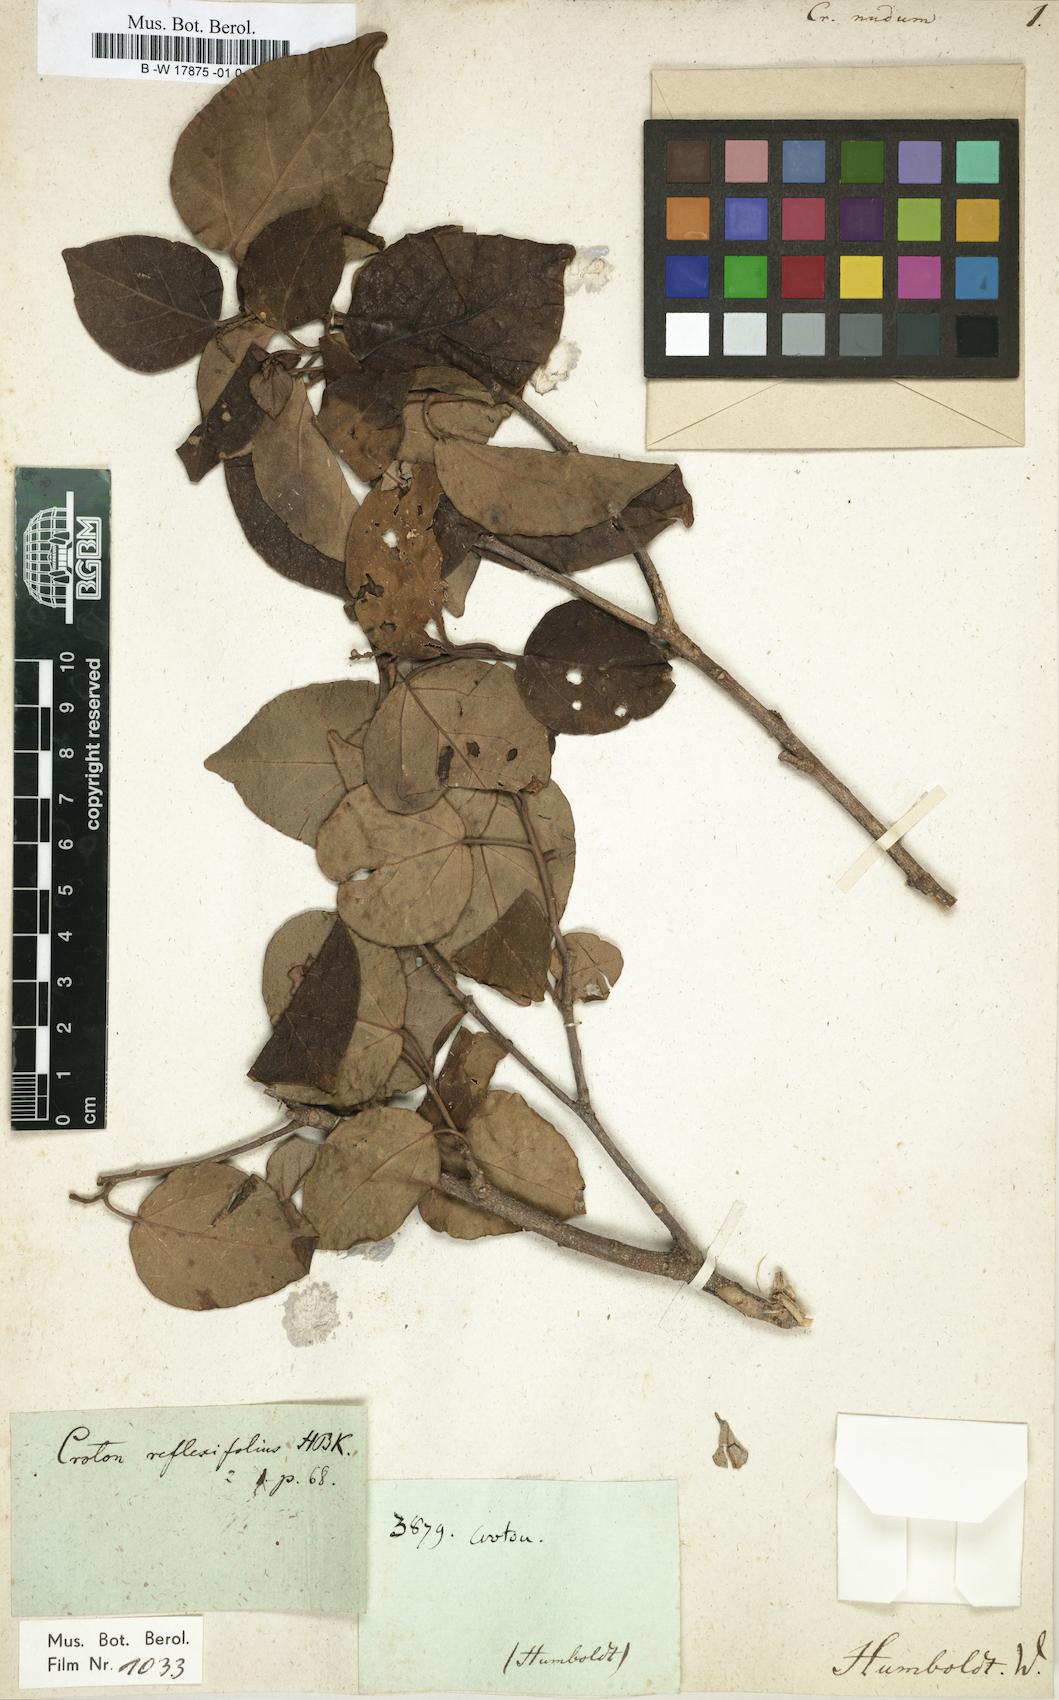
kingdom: Plantae
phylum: Tracheophyta
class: Magnoliopsida
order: Malpighiales
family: Euphorbiaceae
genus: Croton
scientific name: Croton reflexifolius
